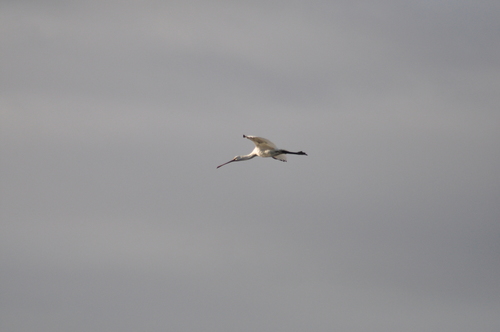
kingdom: Animalia
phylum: Chordata
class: Aves
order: Pelecaniformes
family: Threskiornithidae
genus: Platalea
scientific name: Platalea leucorodia
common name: Eurasian spoonbill
